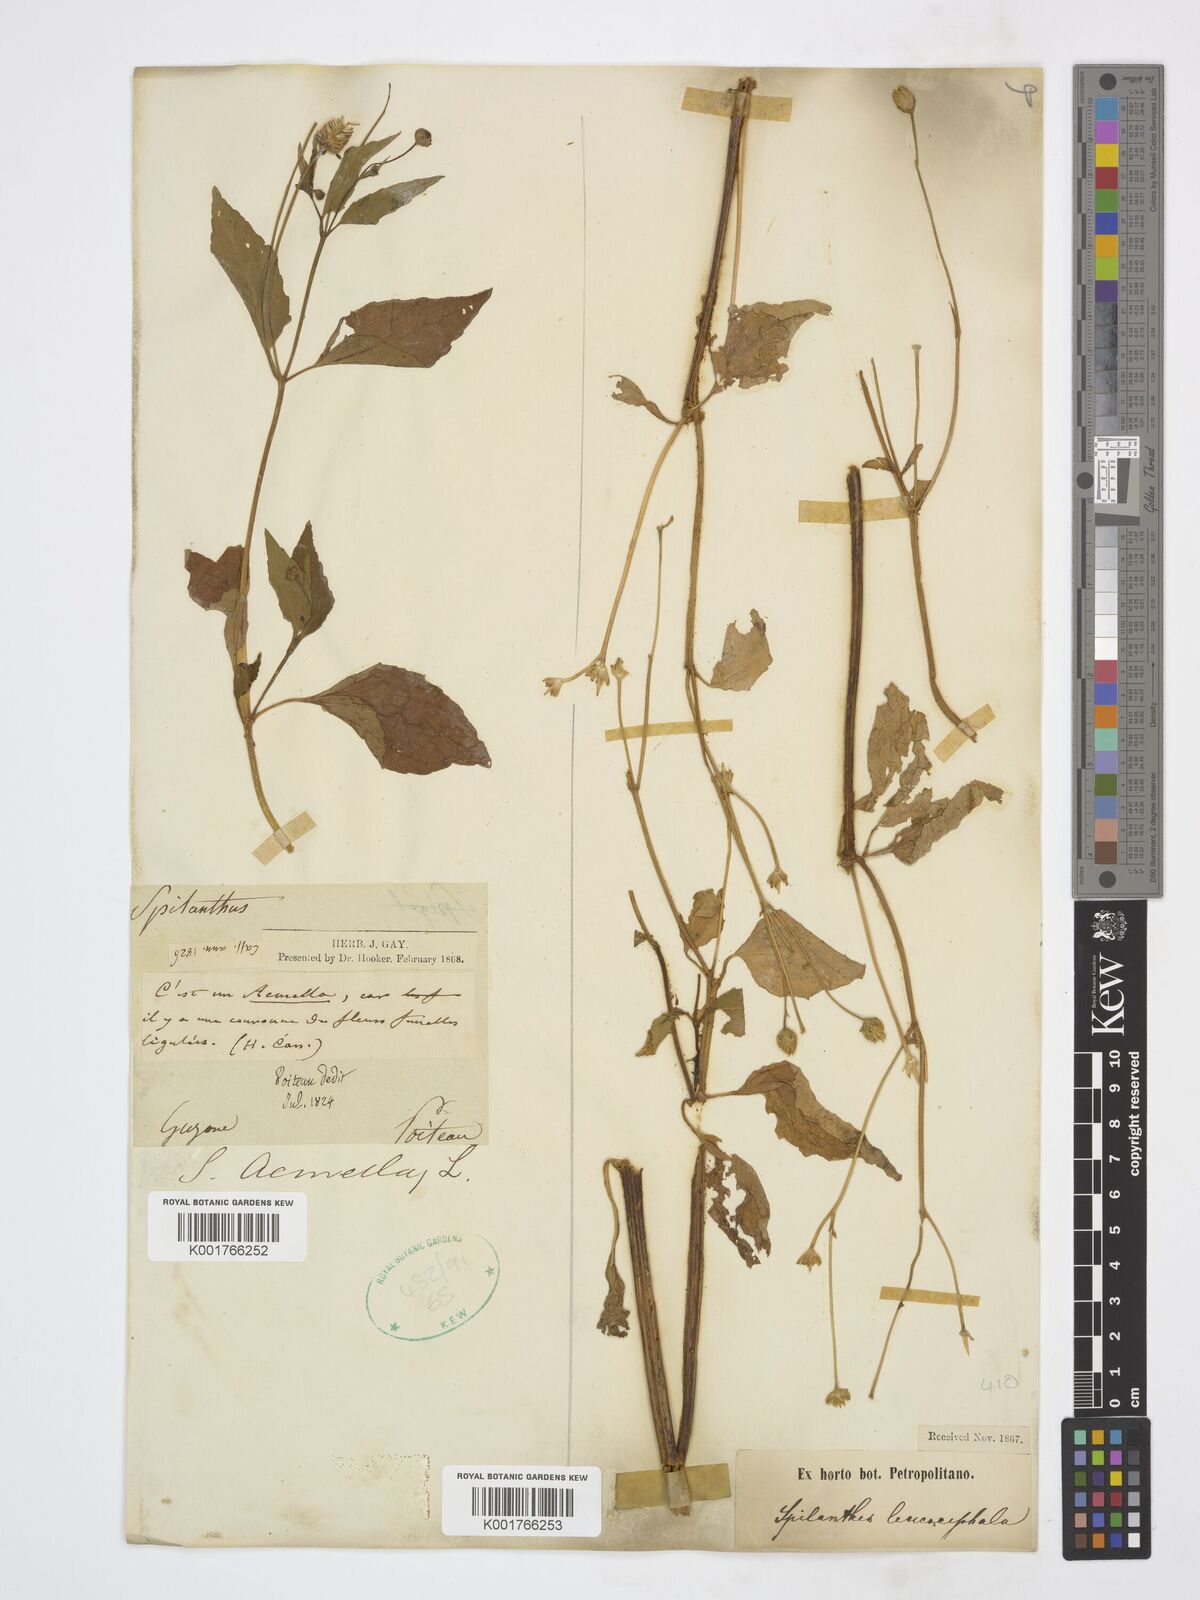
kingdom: Plantae
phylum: Tracheophyta
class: Magnoliopsida
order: Asterales
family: Asteraceae
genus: Acmella
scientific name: Acmella brachyglossa
